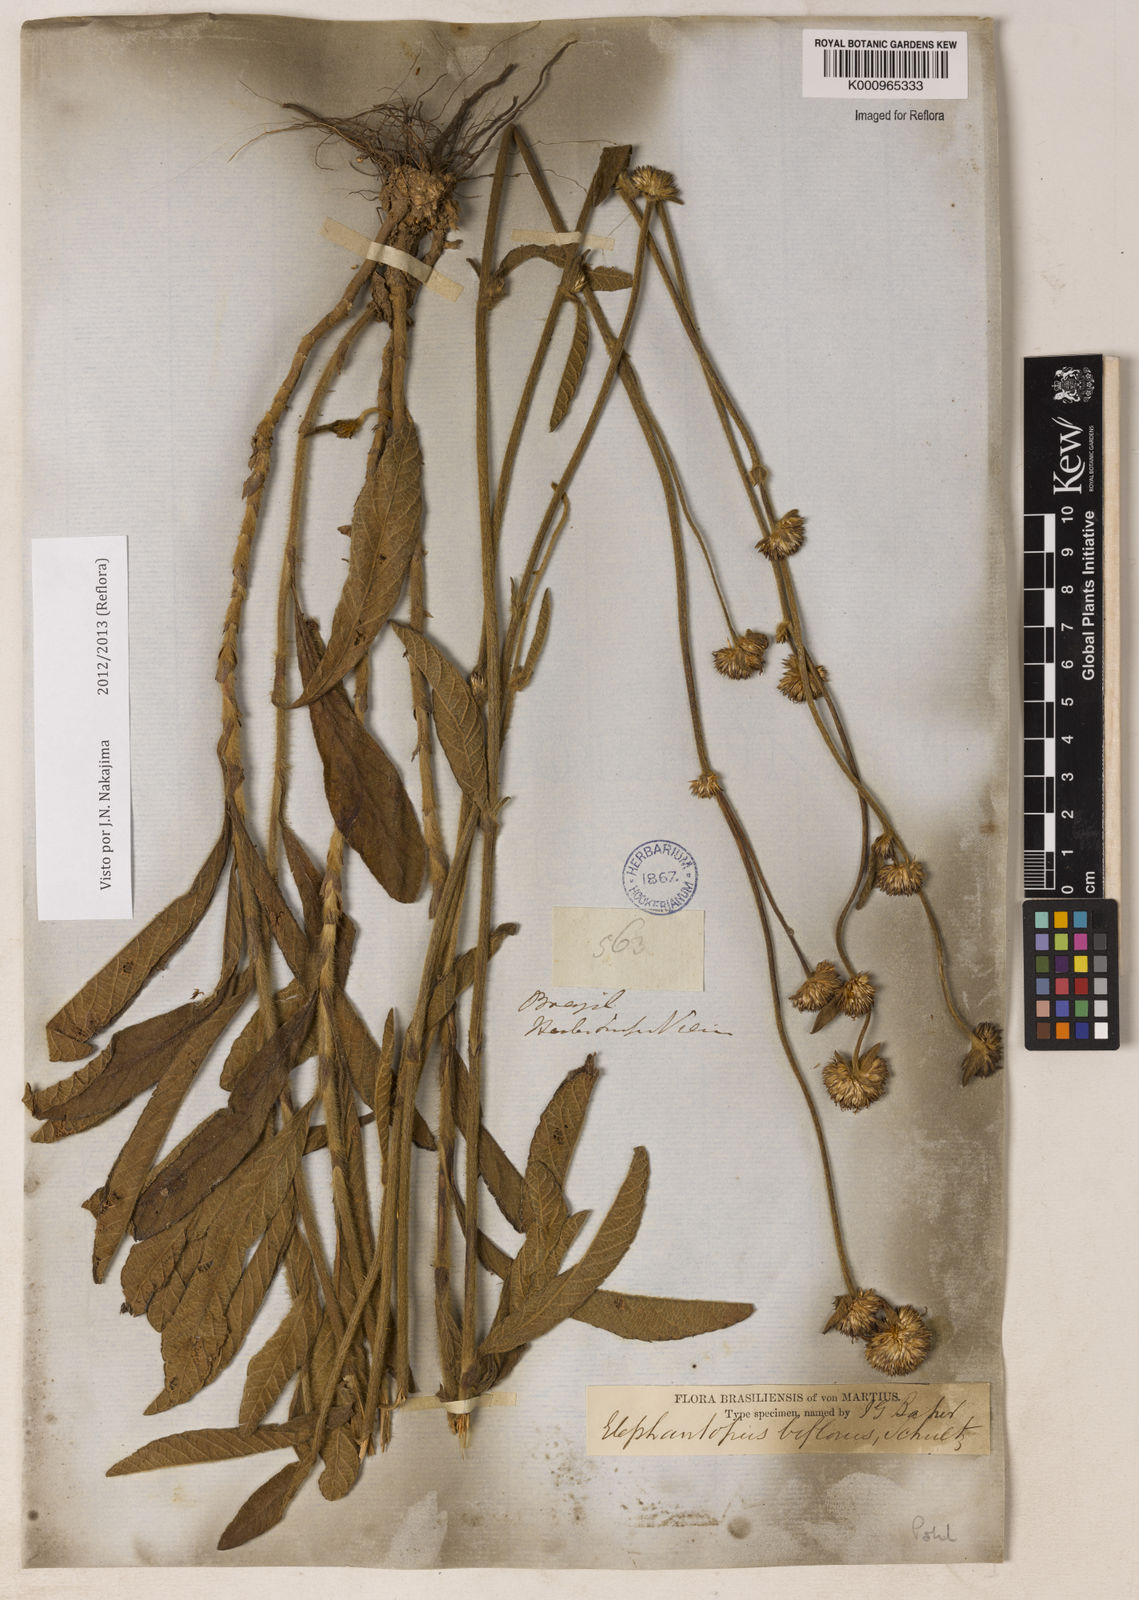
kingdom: Plantae
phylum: Tracheophyta
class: Magnoliopsida
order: Asterales
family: Asteraceae
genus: Elephantopus
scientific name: Elephantopus biflorus
